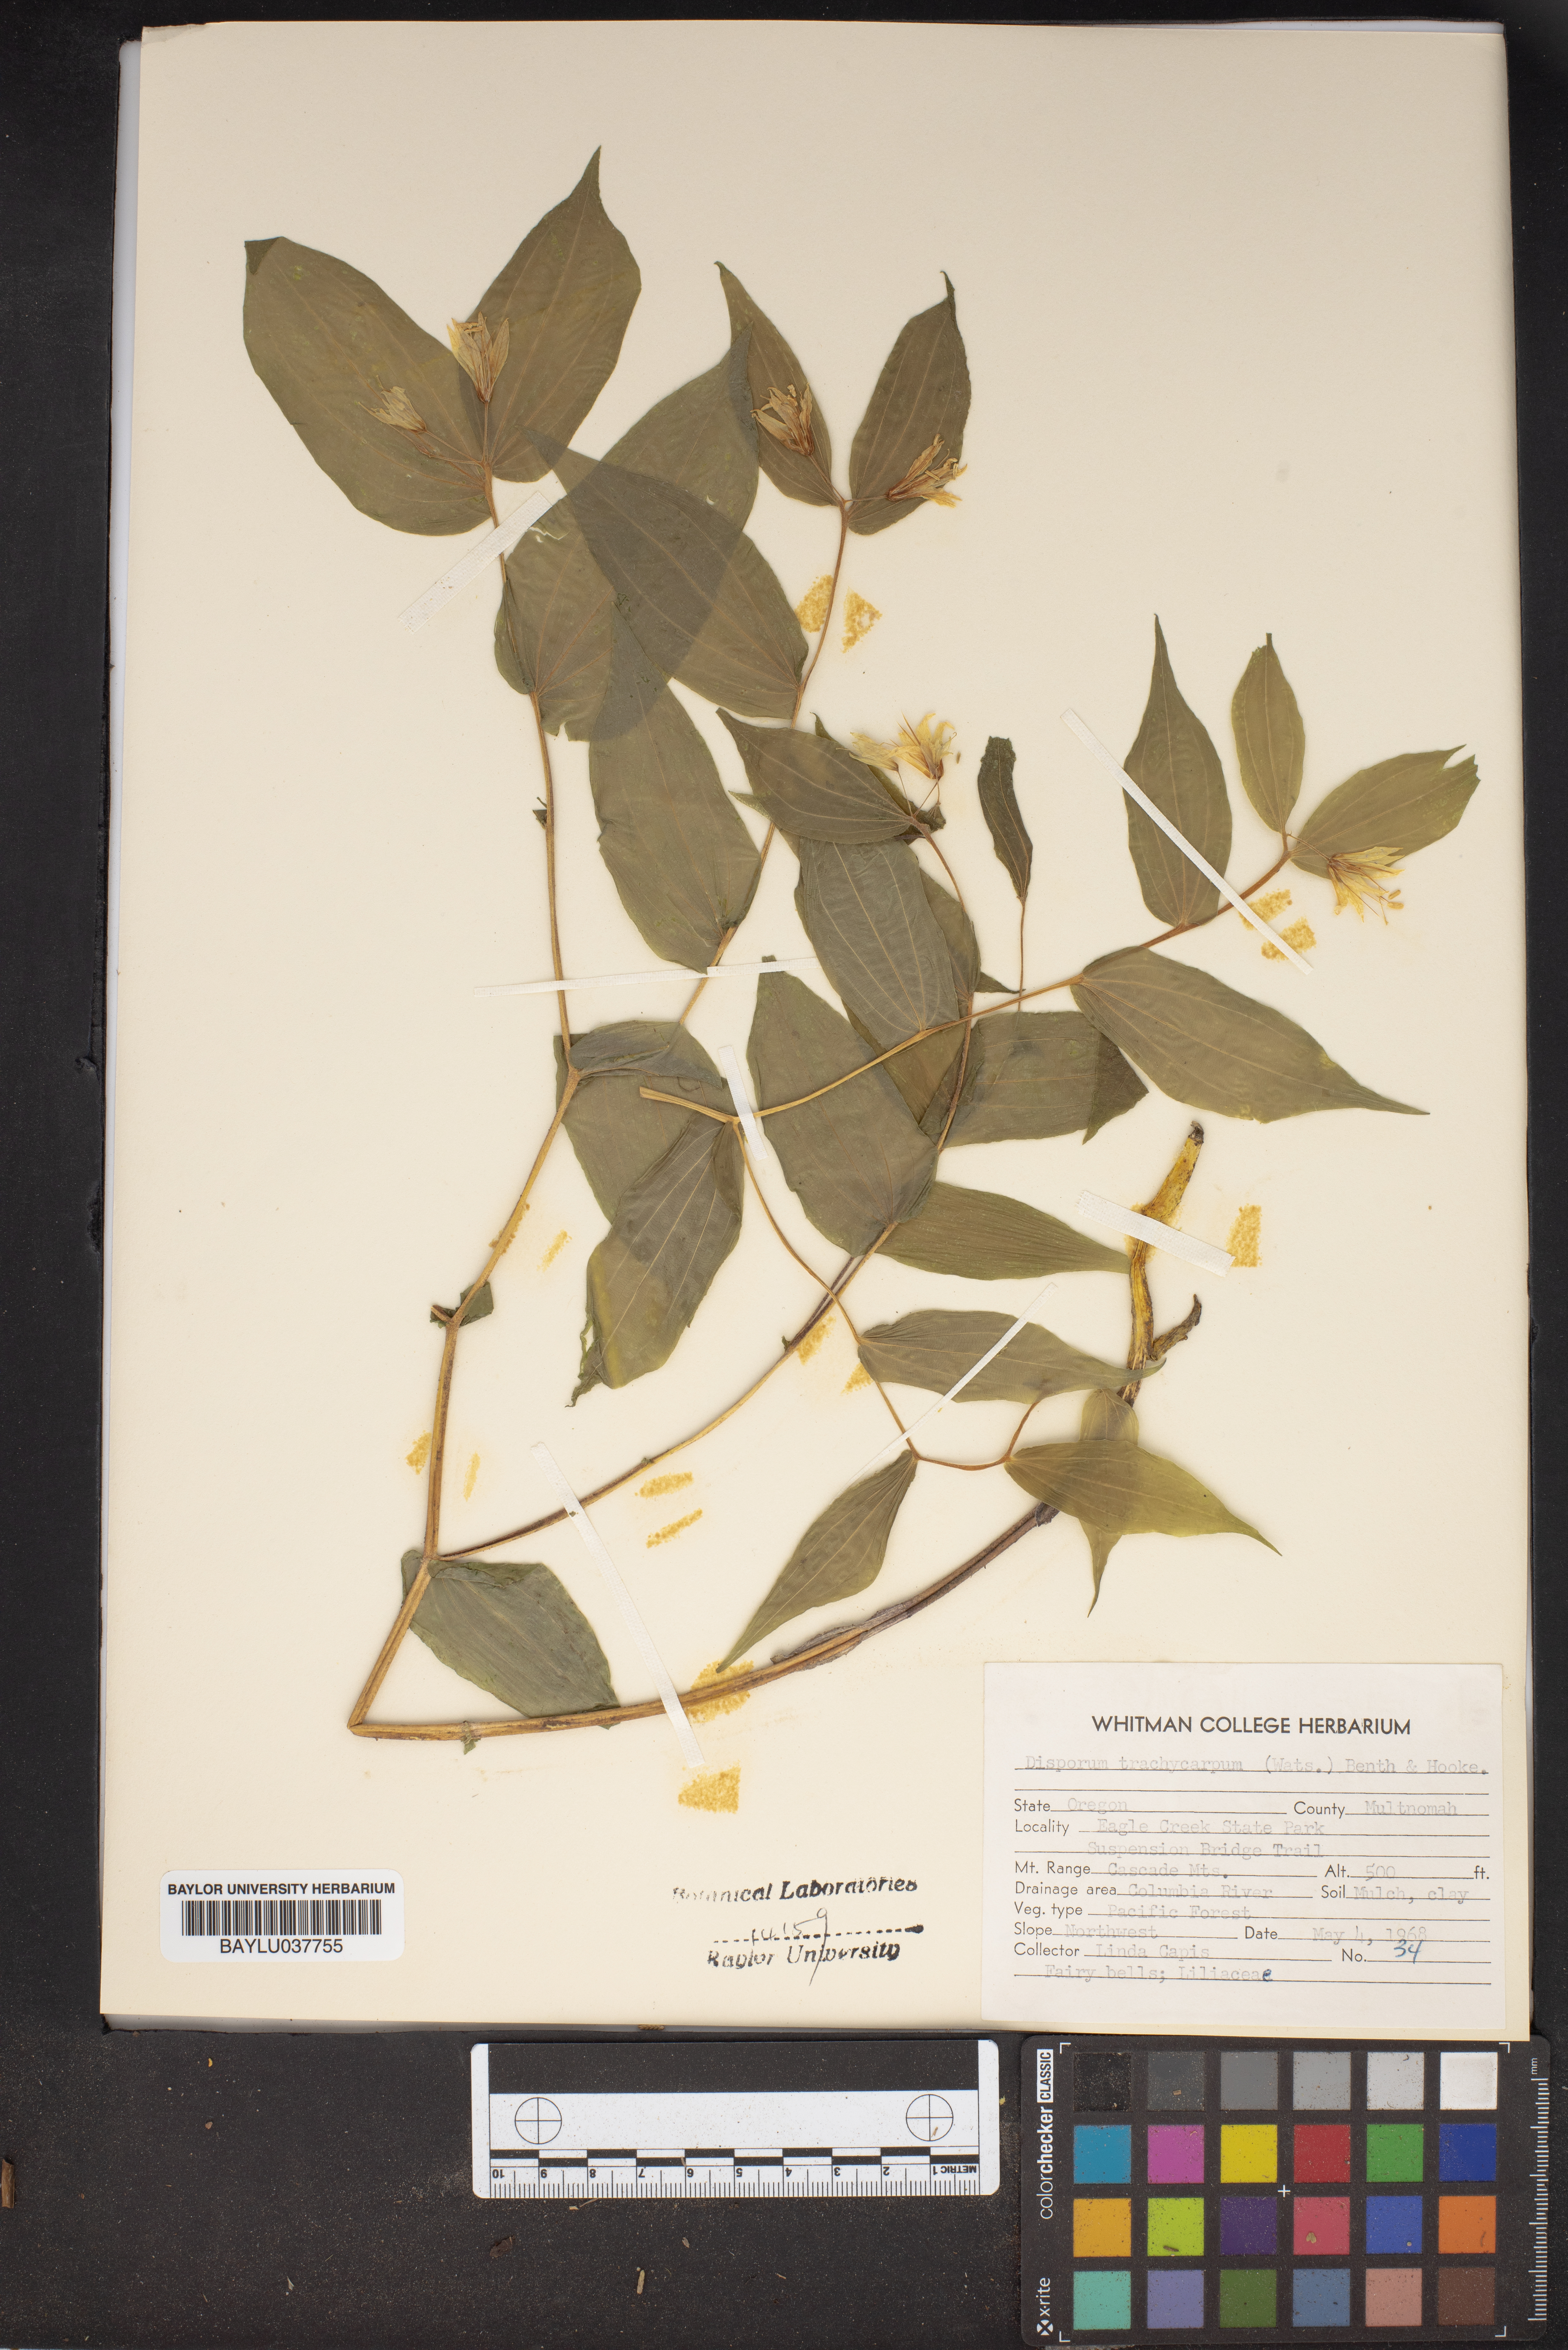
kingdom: Plantae
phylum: Tracheophyta
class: Liliopsida
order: Liliales
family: Liliaceae
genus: Prosartes
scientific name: Prosartes trachycarpa
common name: Rough-fruit fairy-bells
